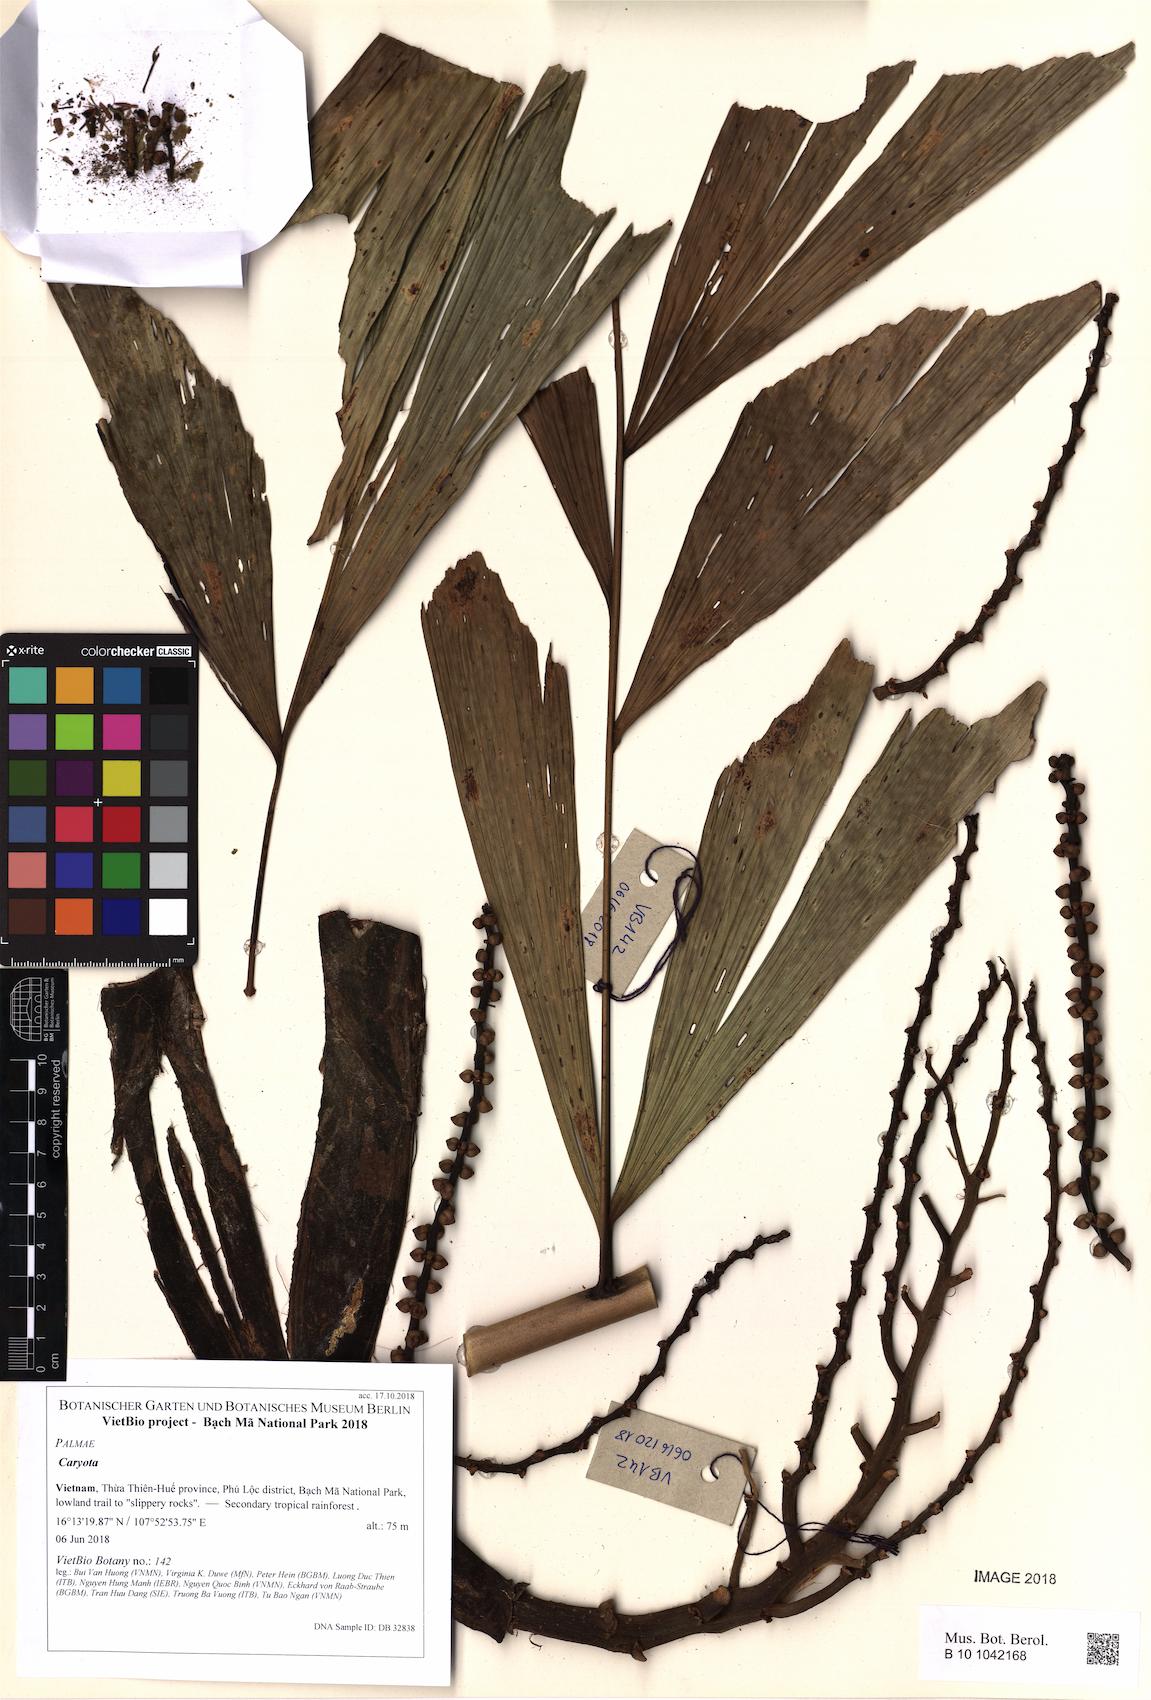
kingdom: Plantae
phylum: Tracheophyta
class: Liliopsida
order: Arecales
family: Arecaceae
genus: Caryota
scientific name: Caryota
